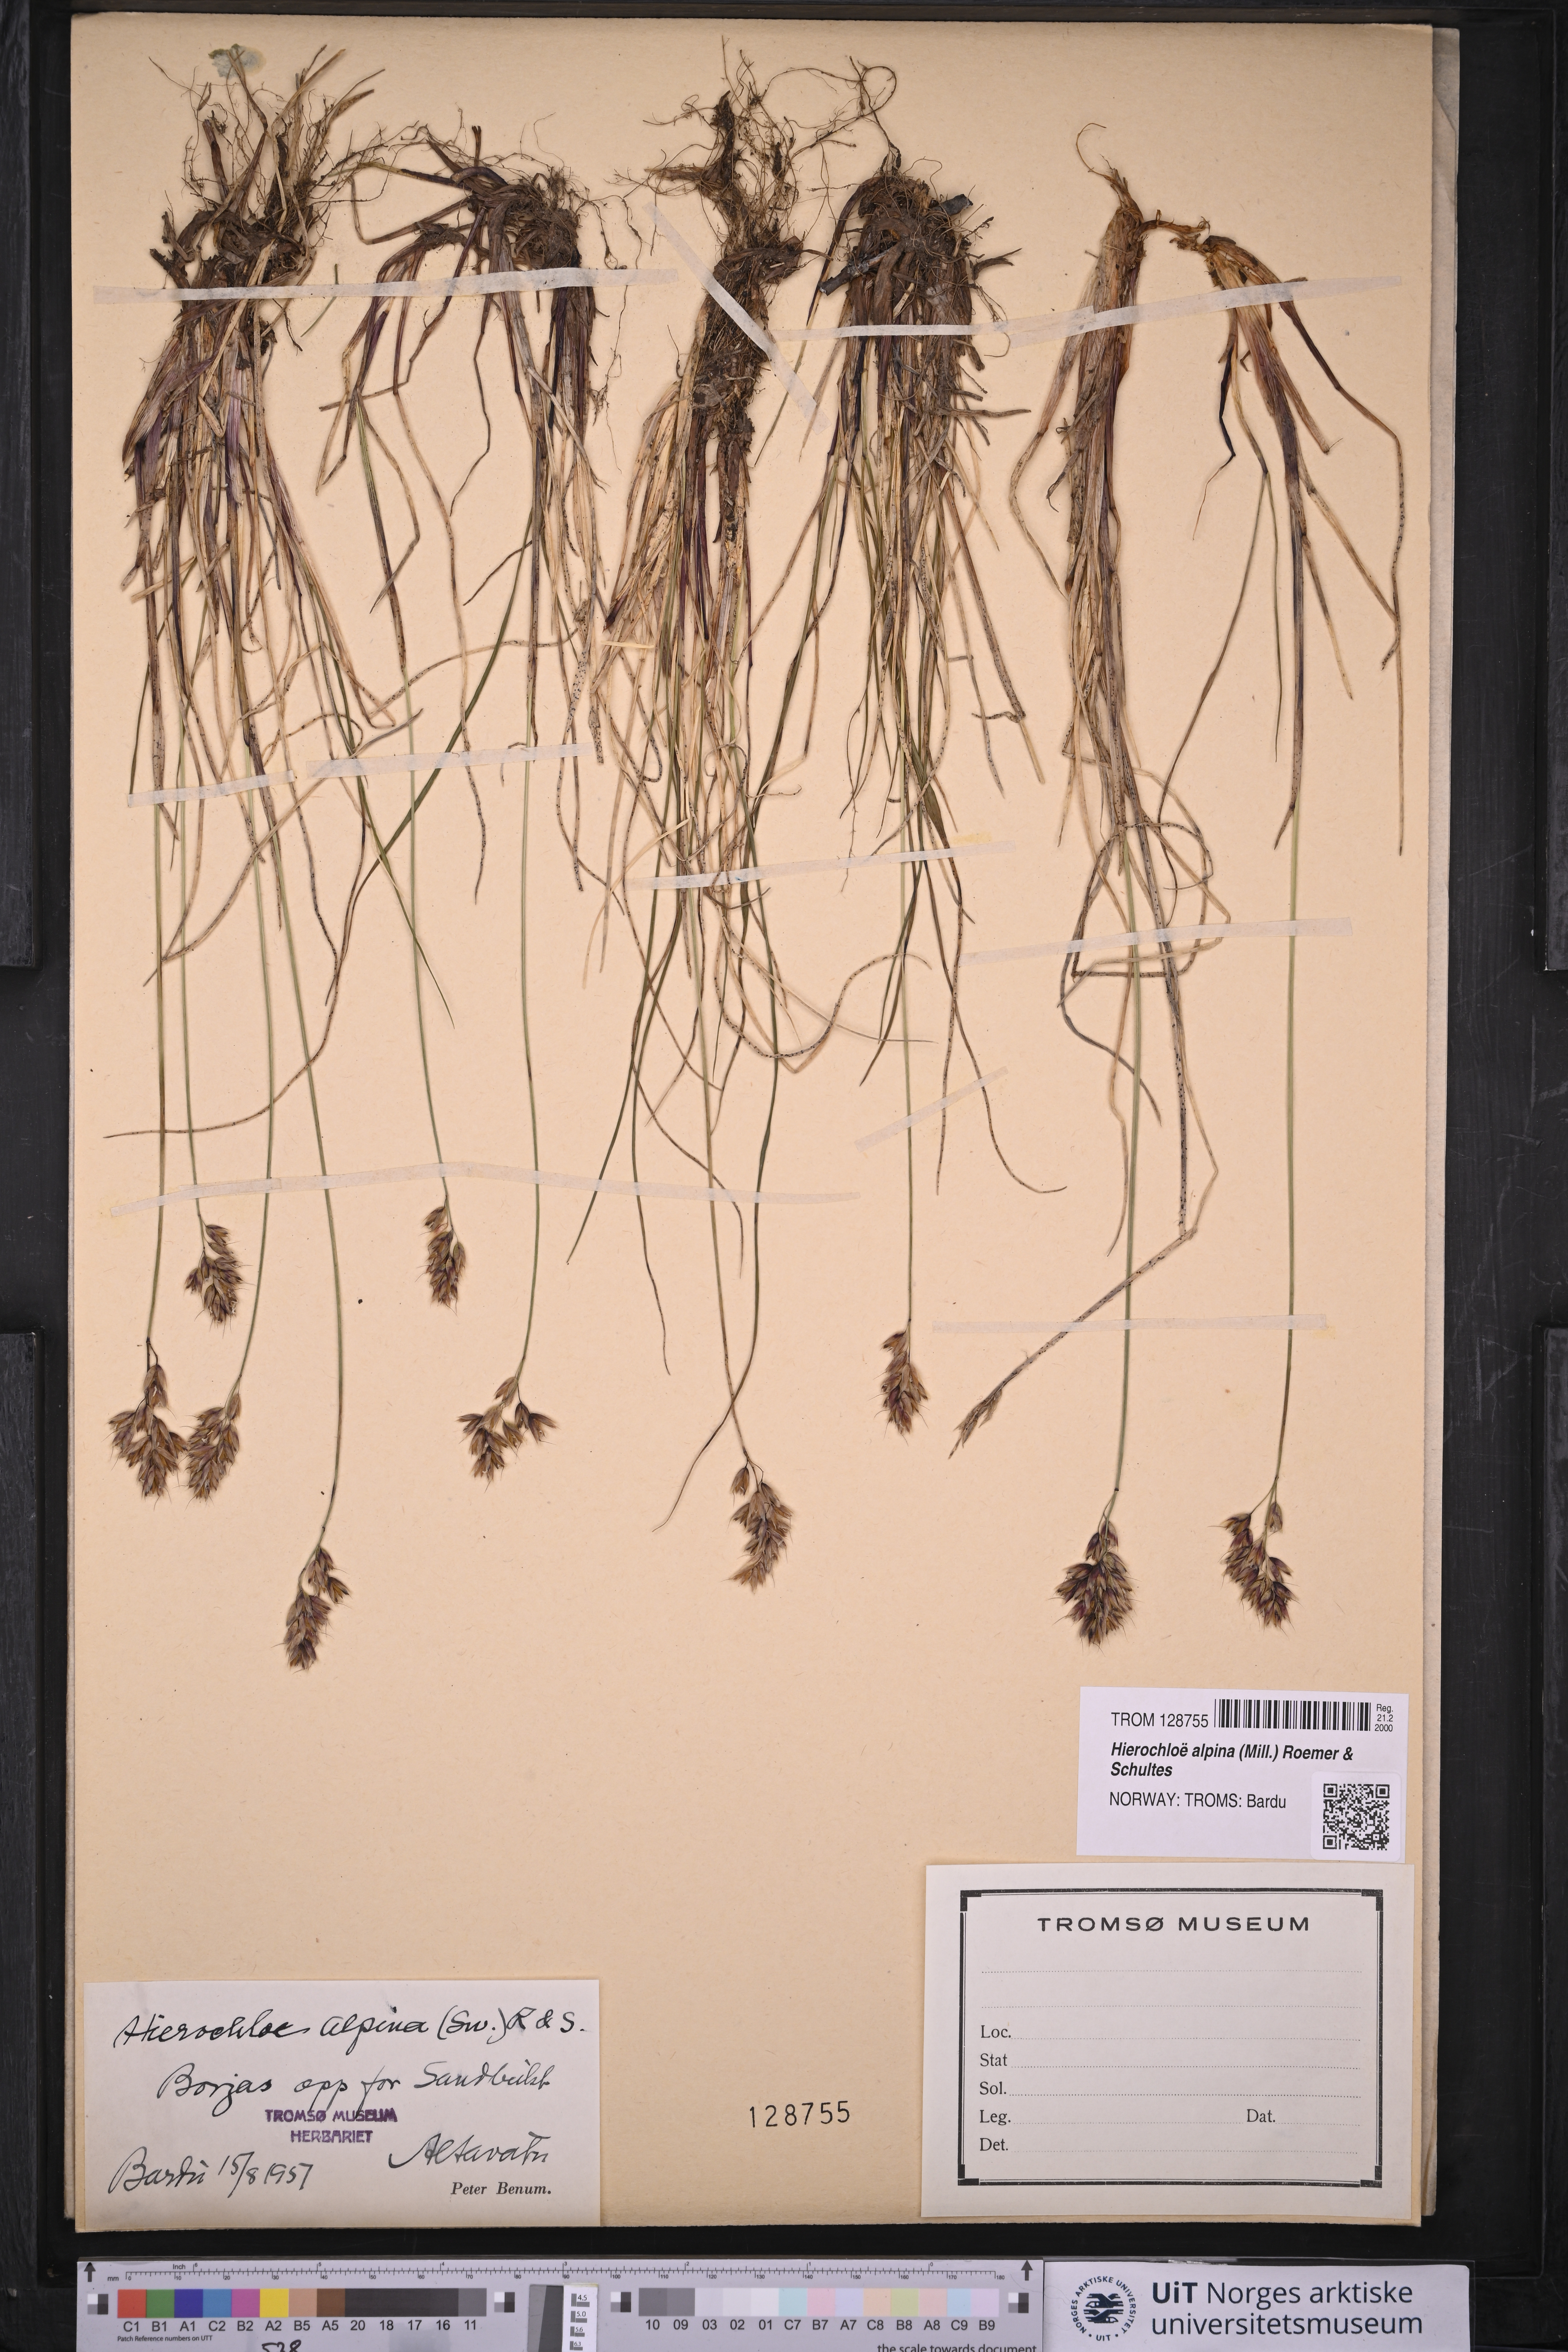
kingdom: Plantae
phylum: Tracheophyta
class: Liliopsida
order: Poales
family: Poaceae
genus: Anthoxanthum
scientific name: Anthoxanthum monticola
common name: Alpine sweetgrass
